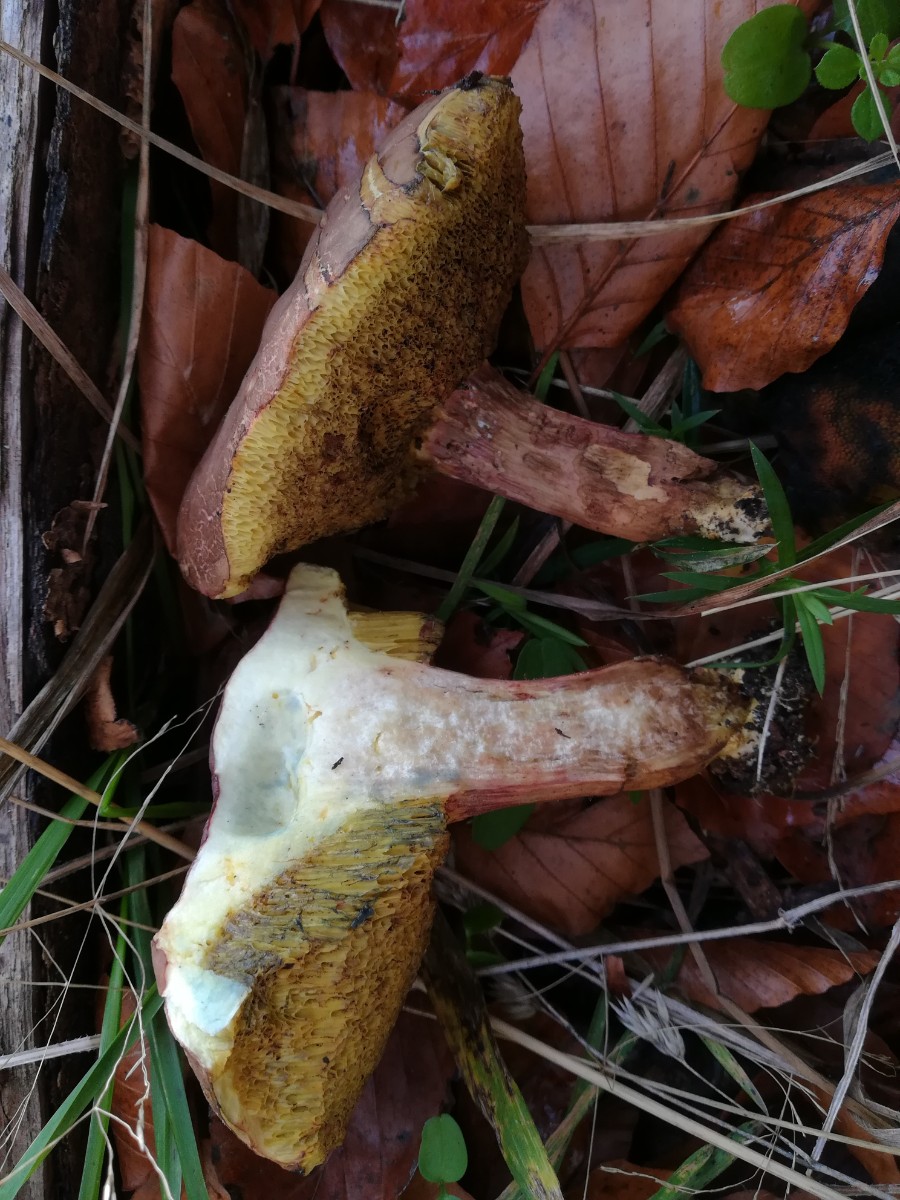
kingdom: Fungi
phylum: Basidiomycota
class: Agaricomycetes
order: Boletales
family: Boletaceae
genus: Xerocomellus
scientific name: Xerocomellus
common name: dværgrørhat
